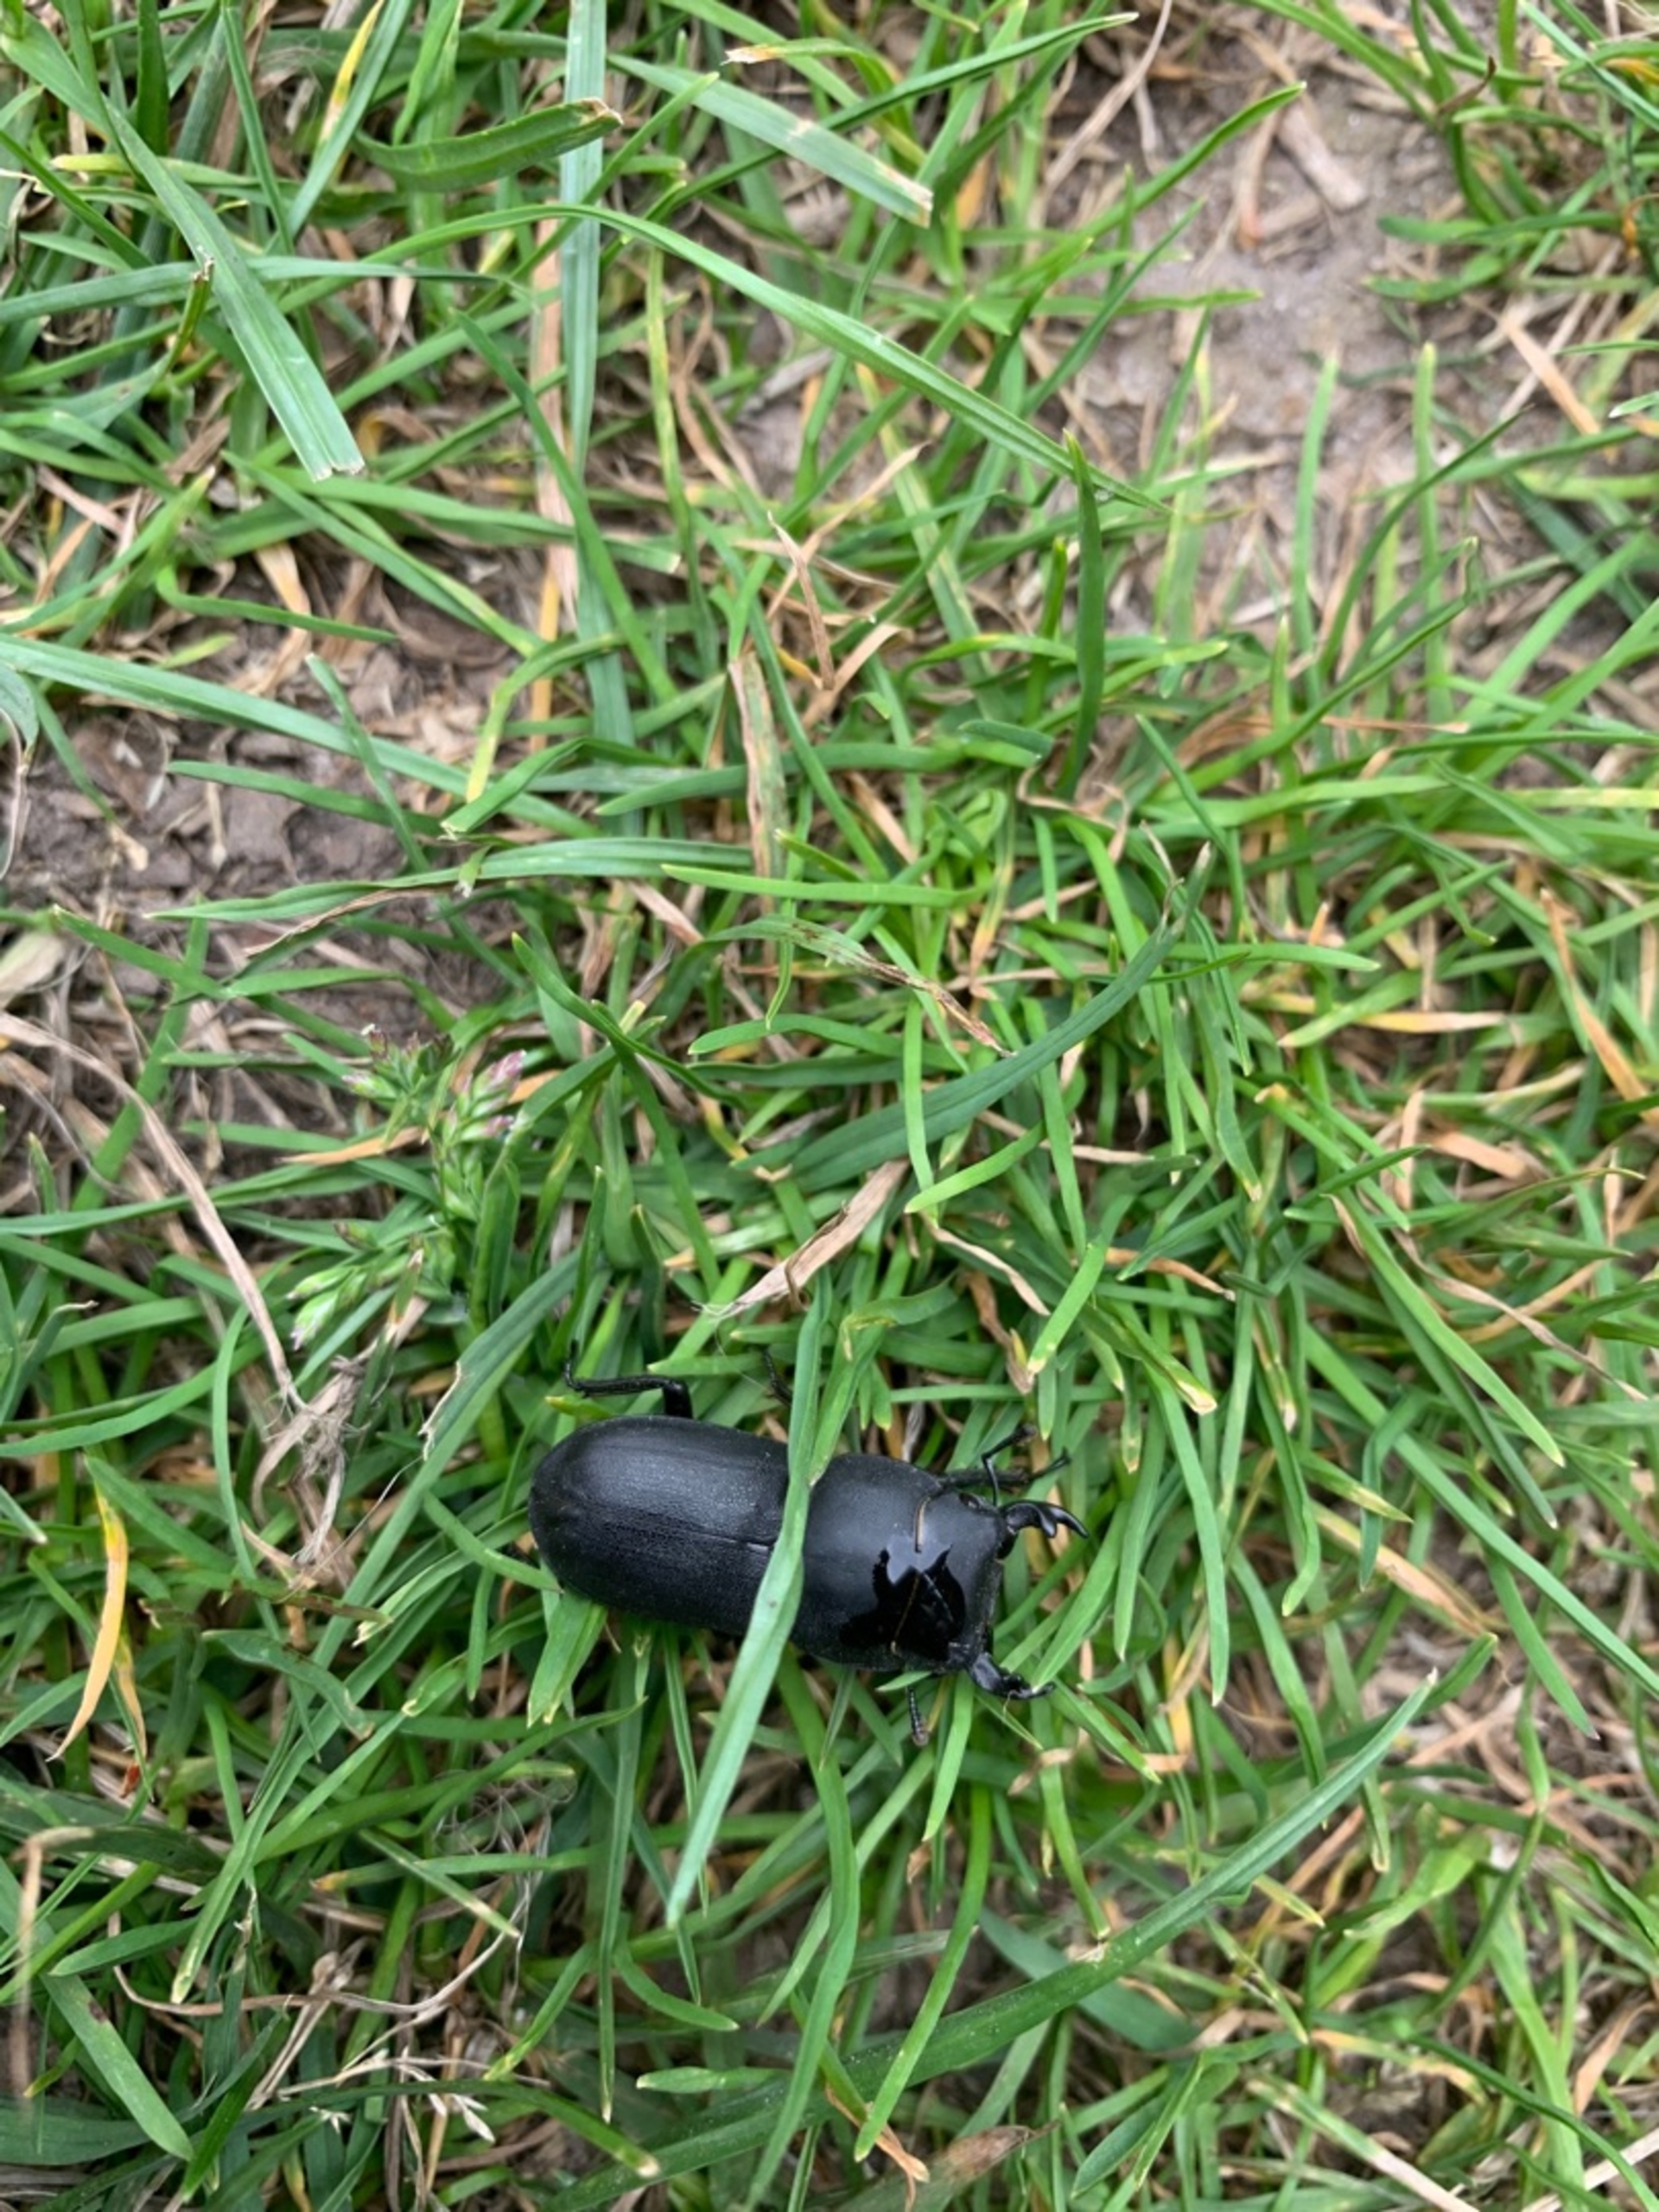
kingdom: Animalia
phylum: Arthropoda
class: Insecta
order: Coleoptera
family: Lucanidae
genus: Dorcus
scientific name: Dorcus parallelipipedus
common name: Bøghjort
